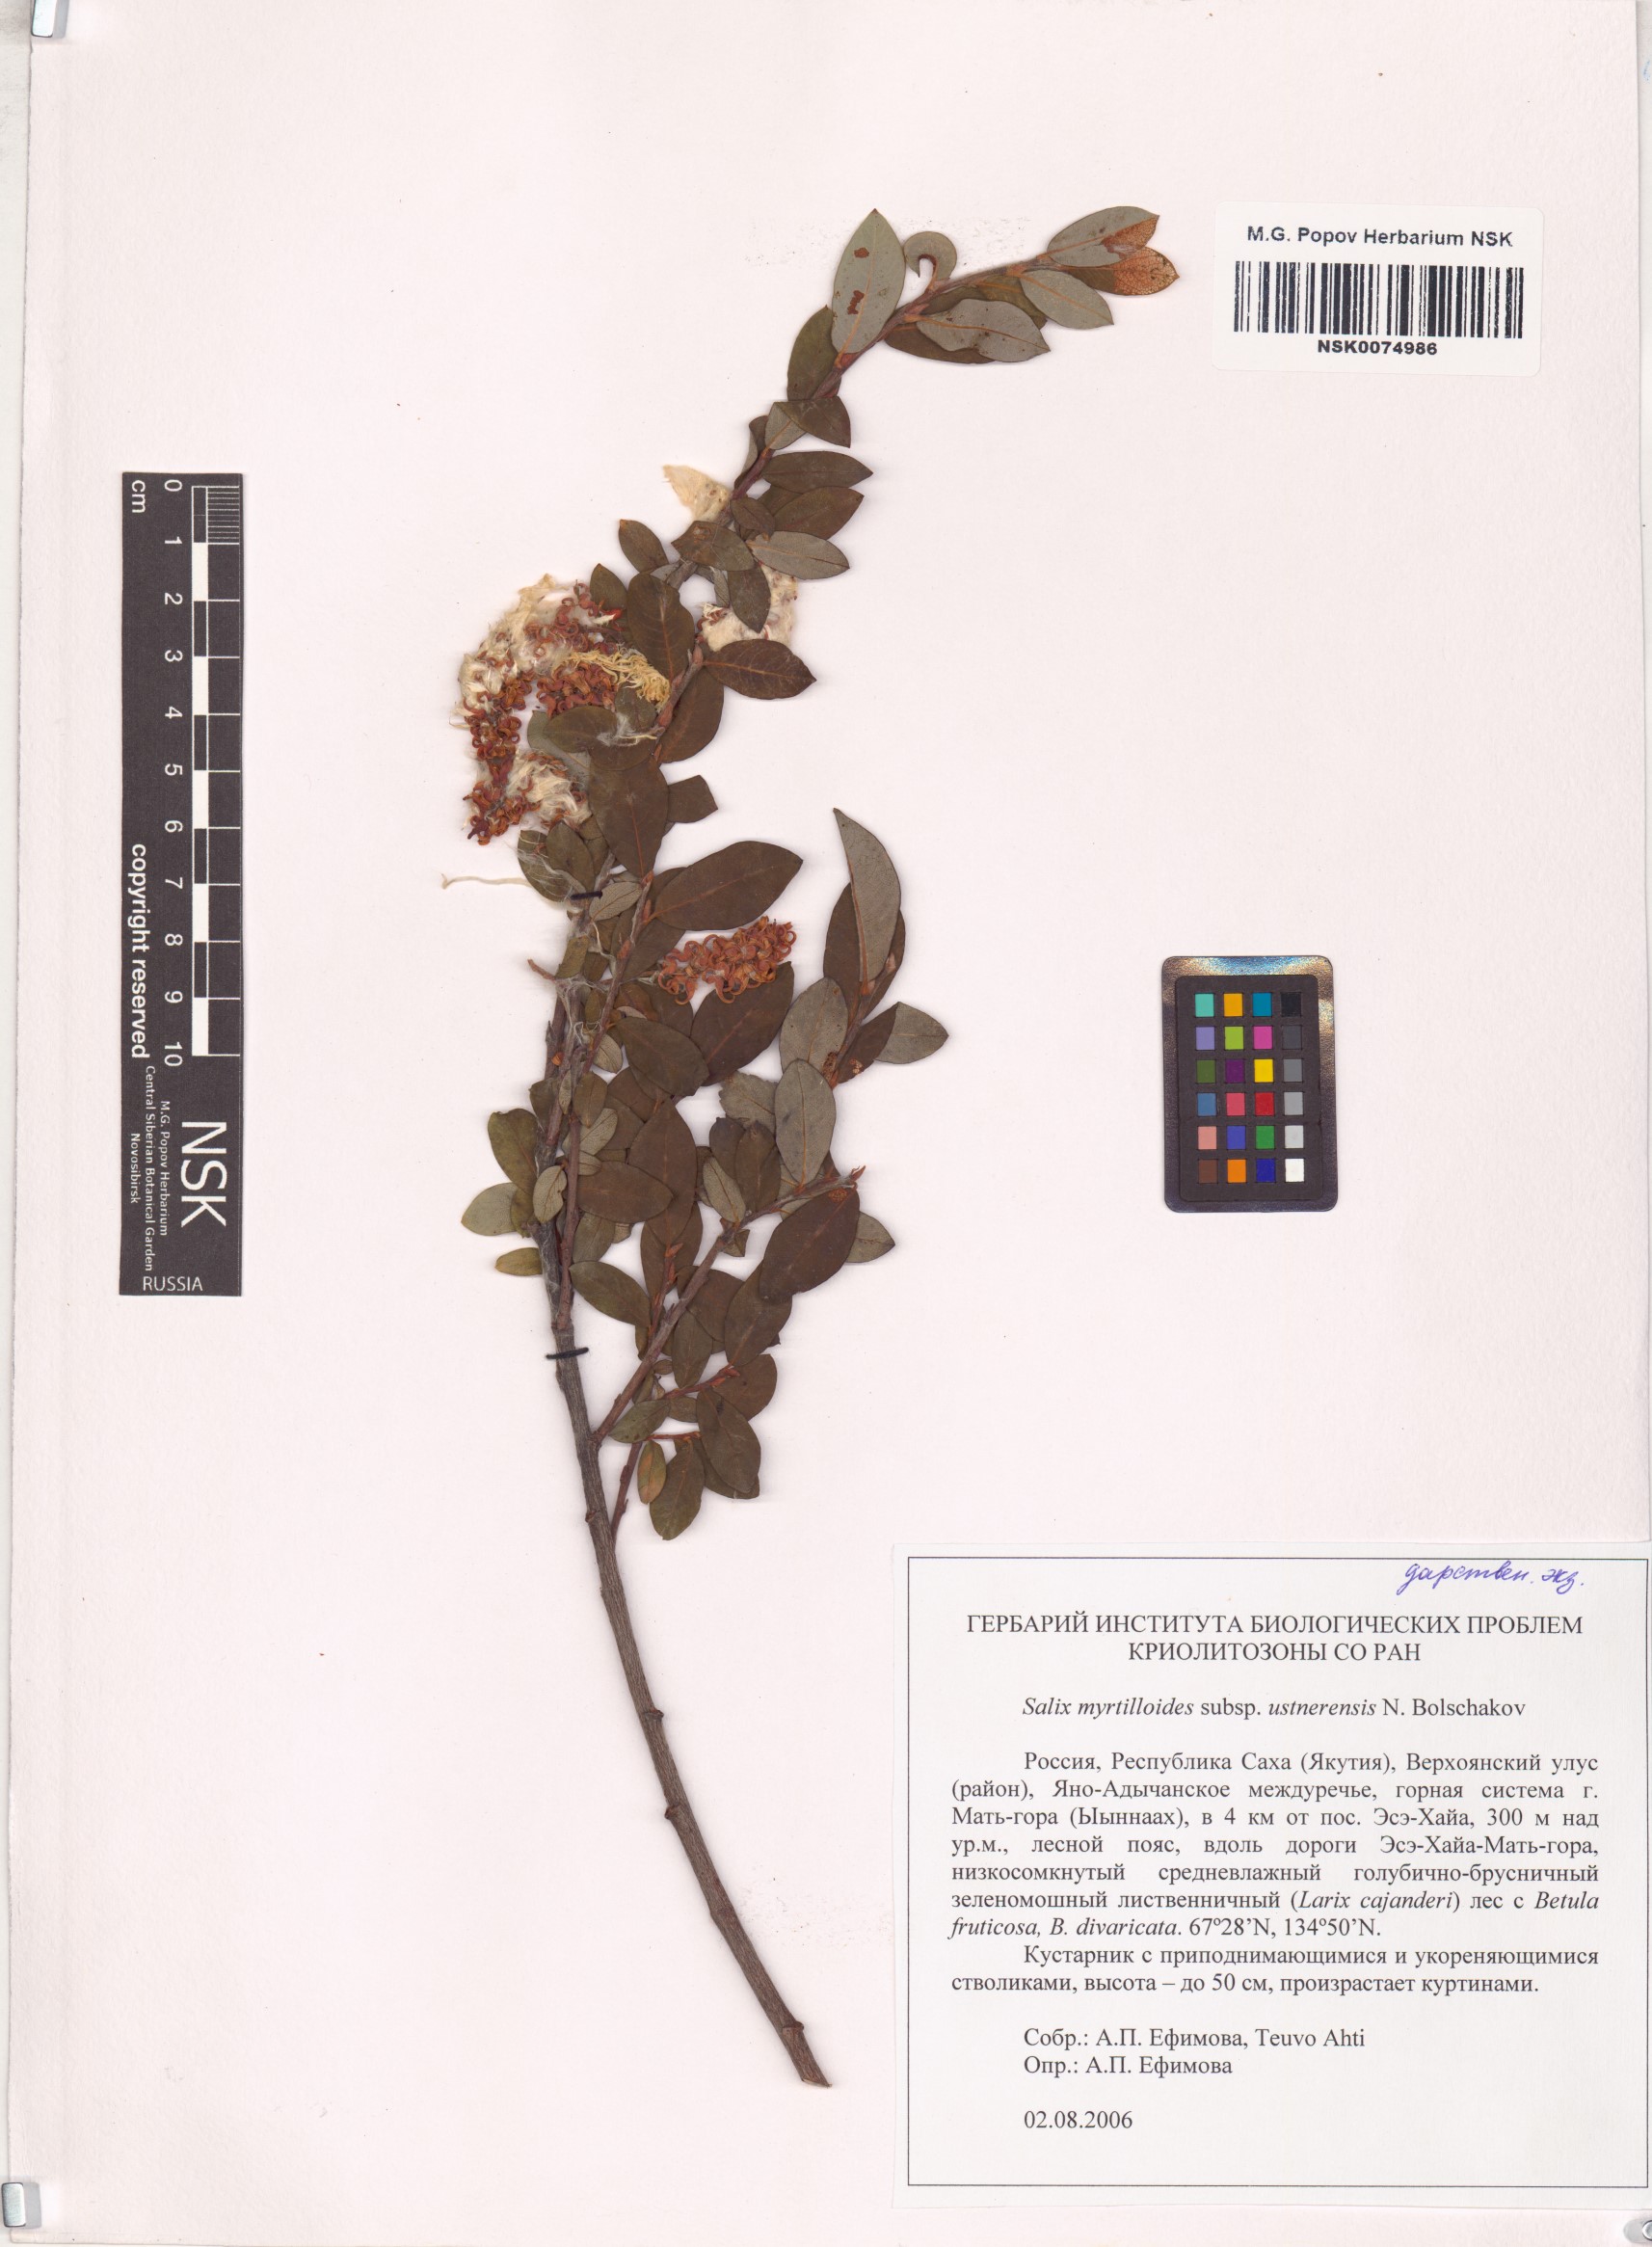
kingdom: Plantae
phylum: Tracheophyta
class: Magnoliopsida
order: Malpighiales
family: Salicaceae
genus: Salix
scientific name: Salix ustnerensis
